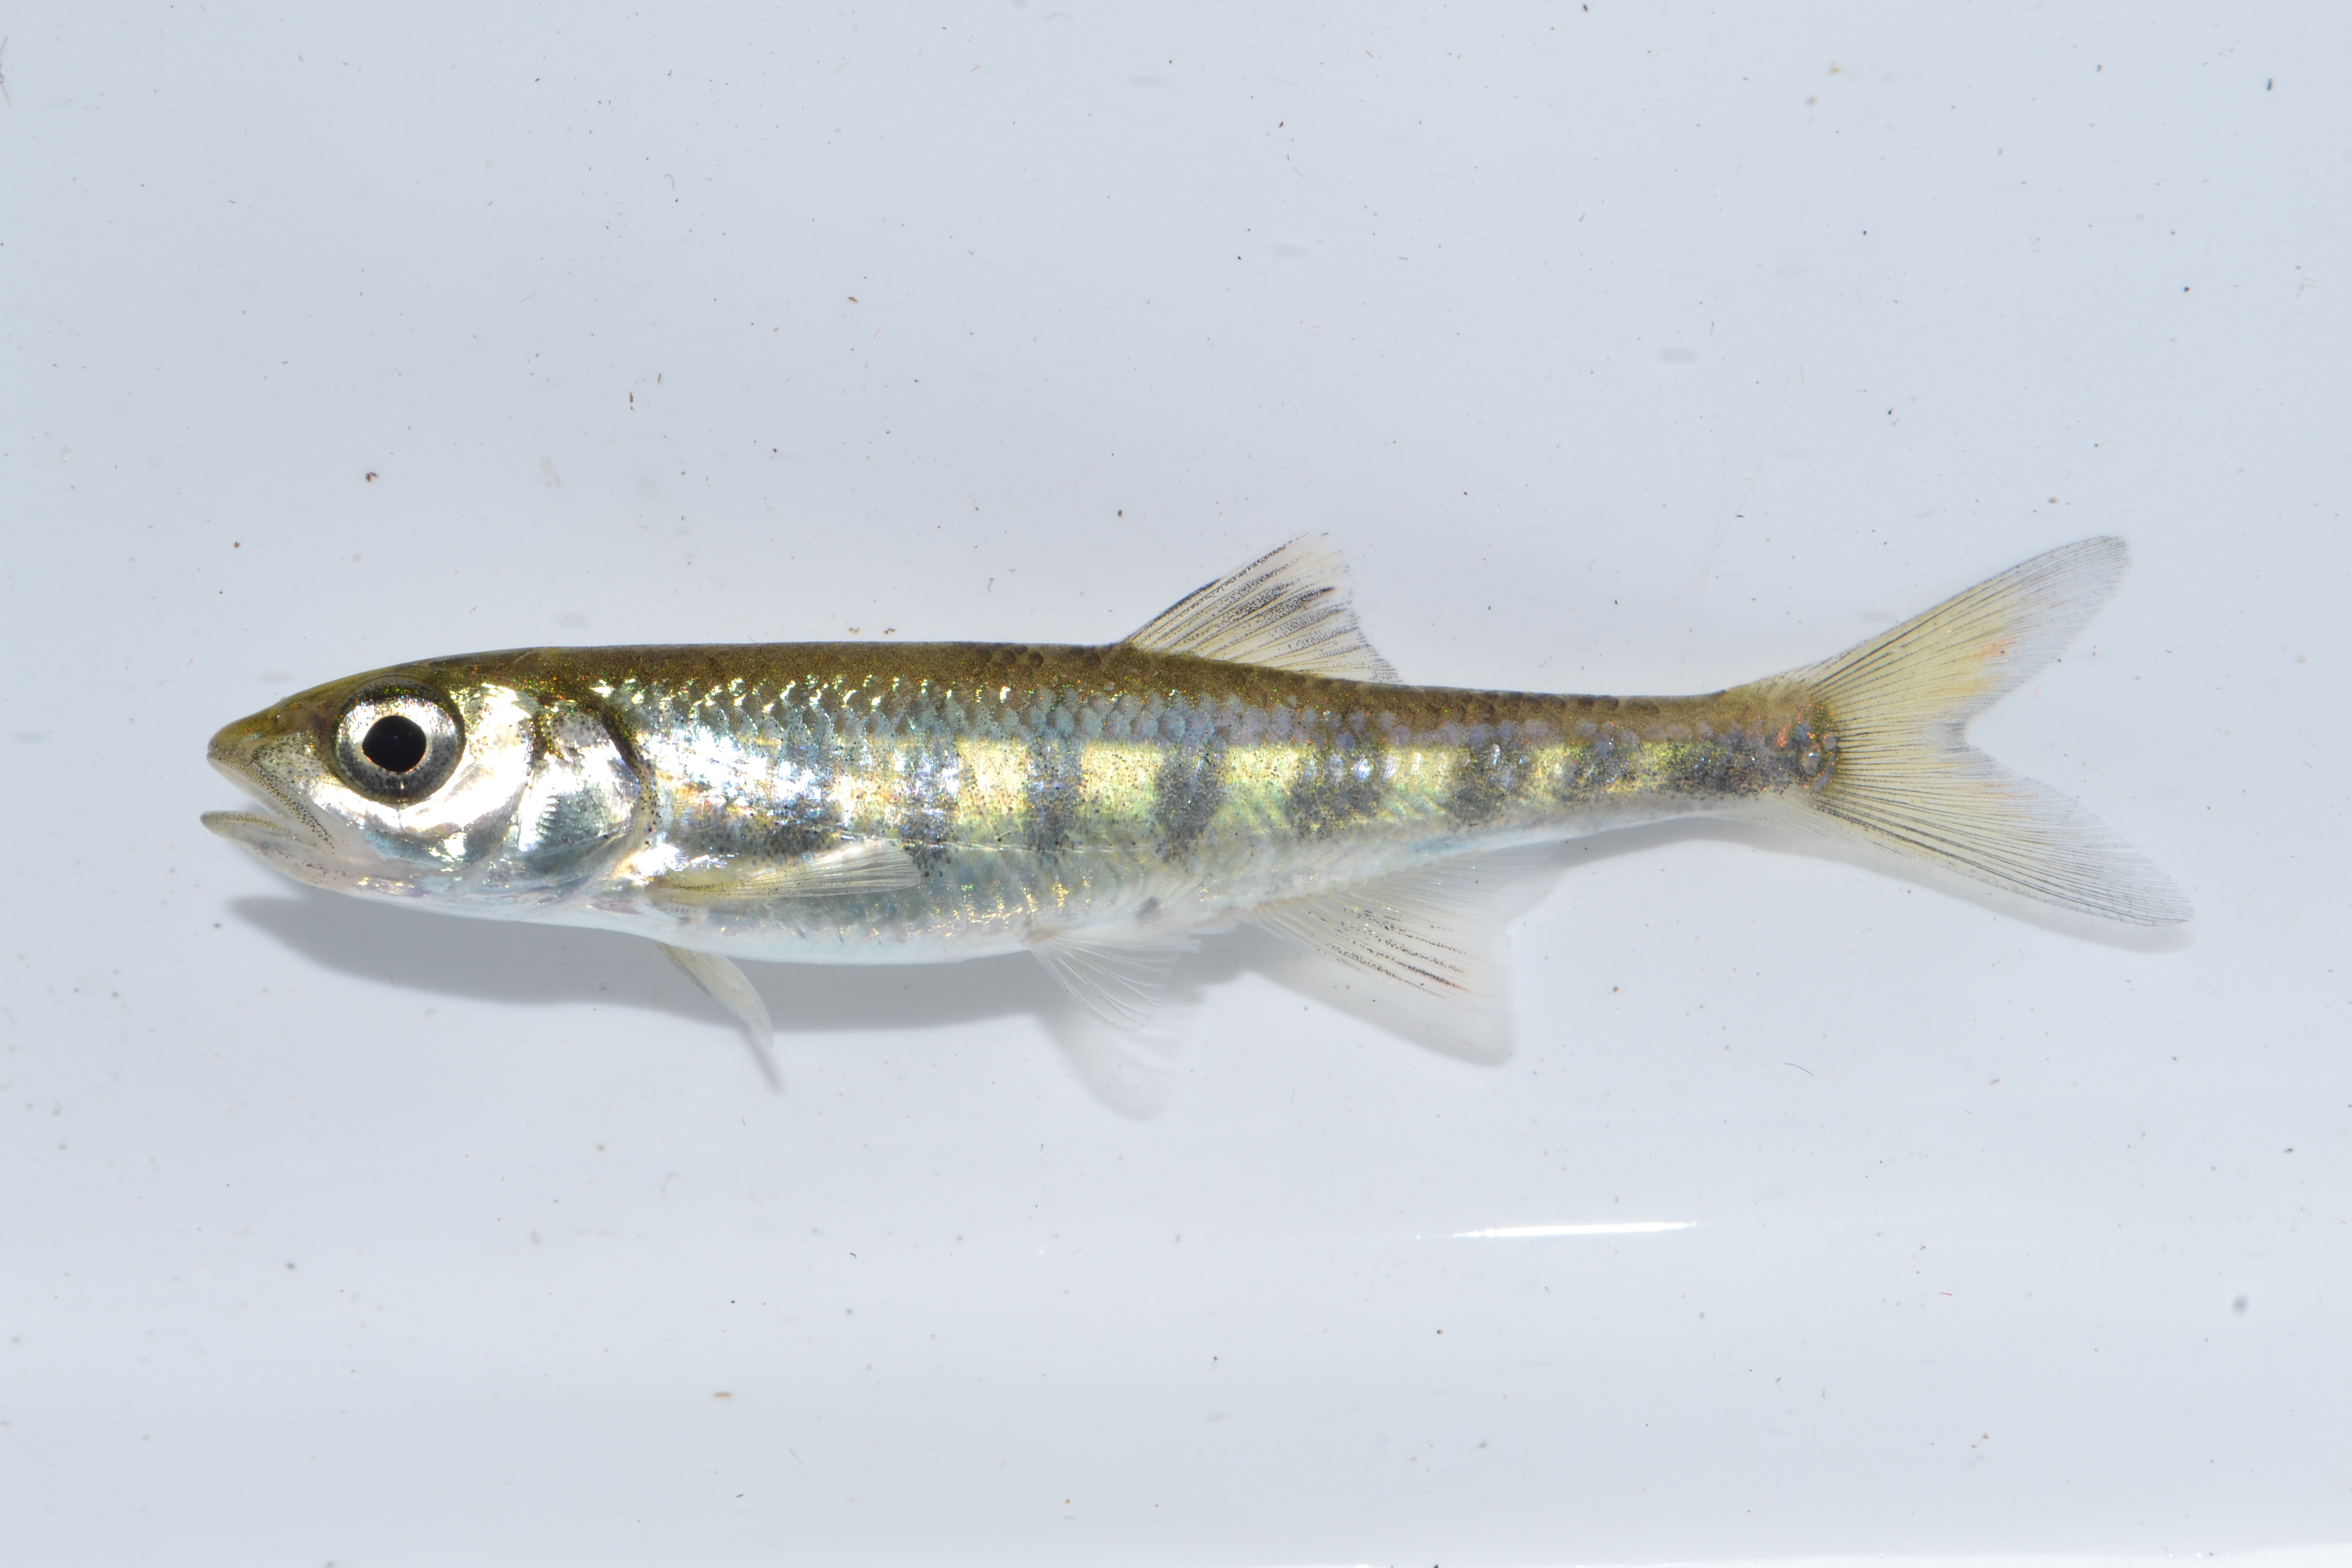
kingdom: Animalia
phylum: Chordata
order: Cypriniformes
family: Cyprinidae
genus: Opsaridium
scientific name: Opsaridium zambezense
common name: Barred minnow
